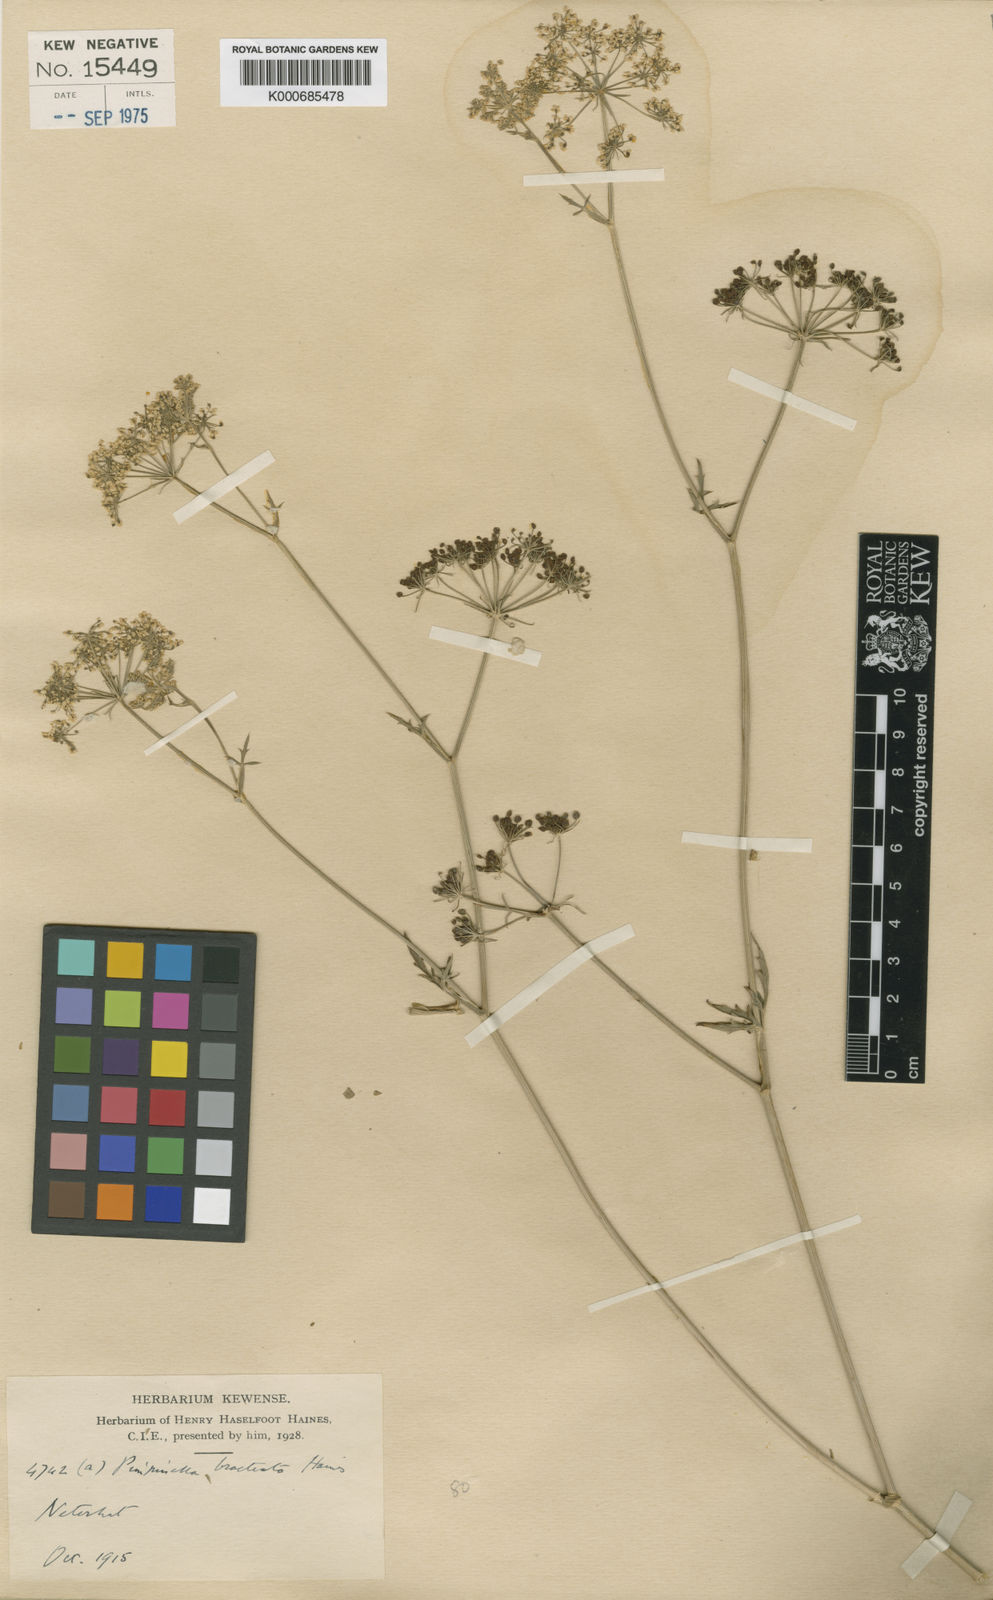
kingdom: Plantae
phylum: Tracheophyta
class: Magnoliopsida
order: Apiales
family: Apiaceae
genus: Pimpinella
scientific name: Pimpinella bracteata
